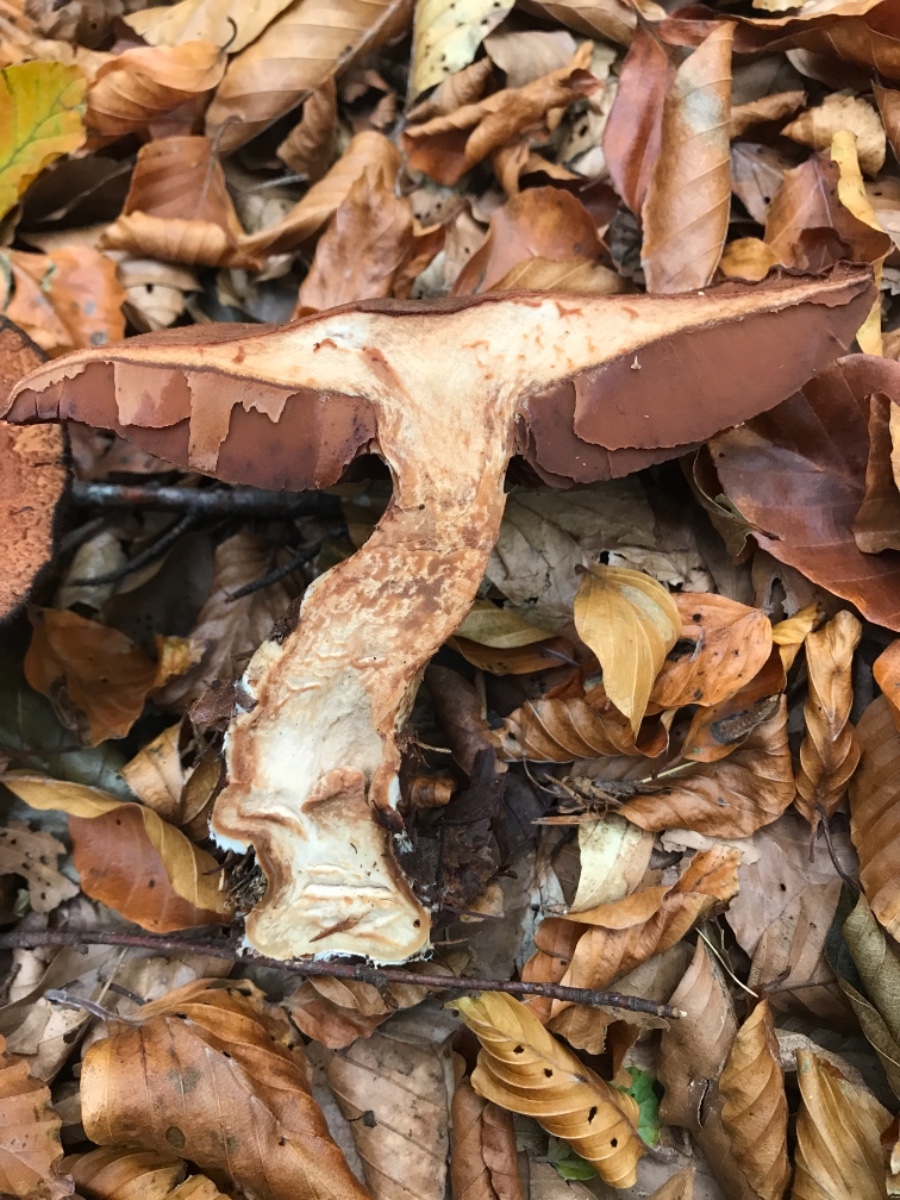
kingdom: Fungi
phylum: Basidiomycota
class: Agaricomycetes
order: Agaricales
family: Cortinariaceae
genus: Cortinarius
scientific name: Cortinarius
